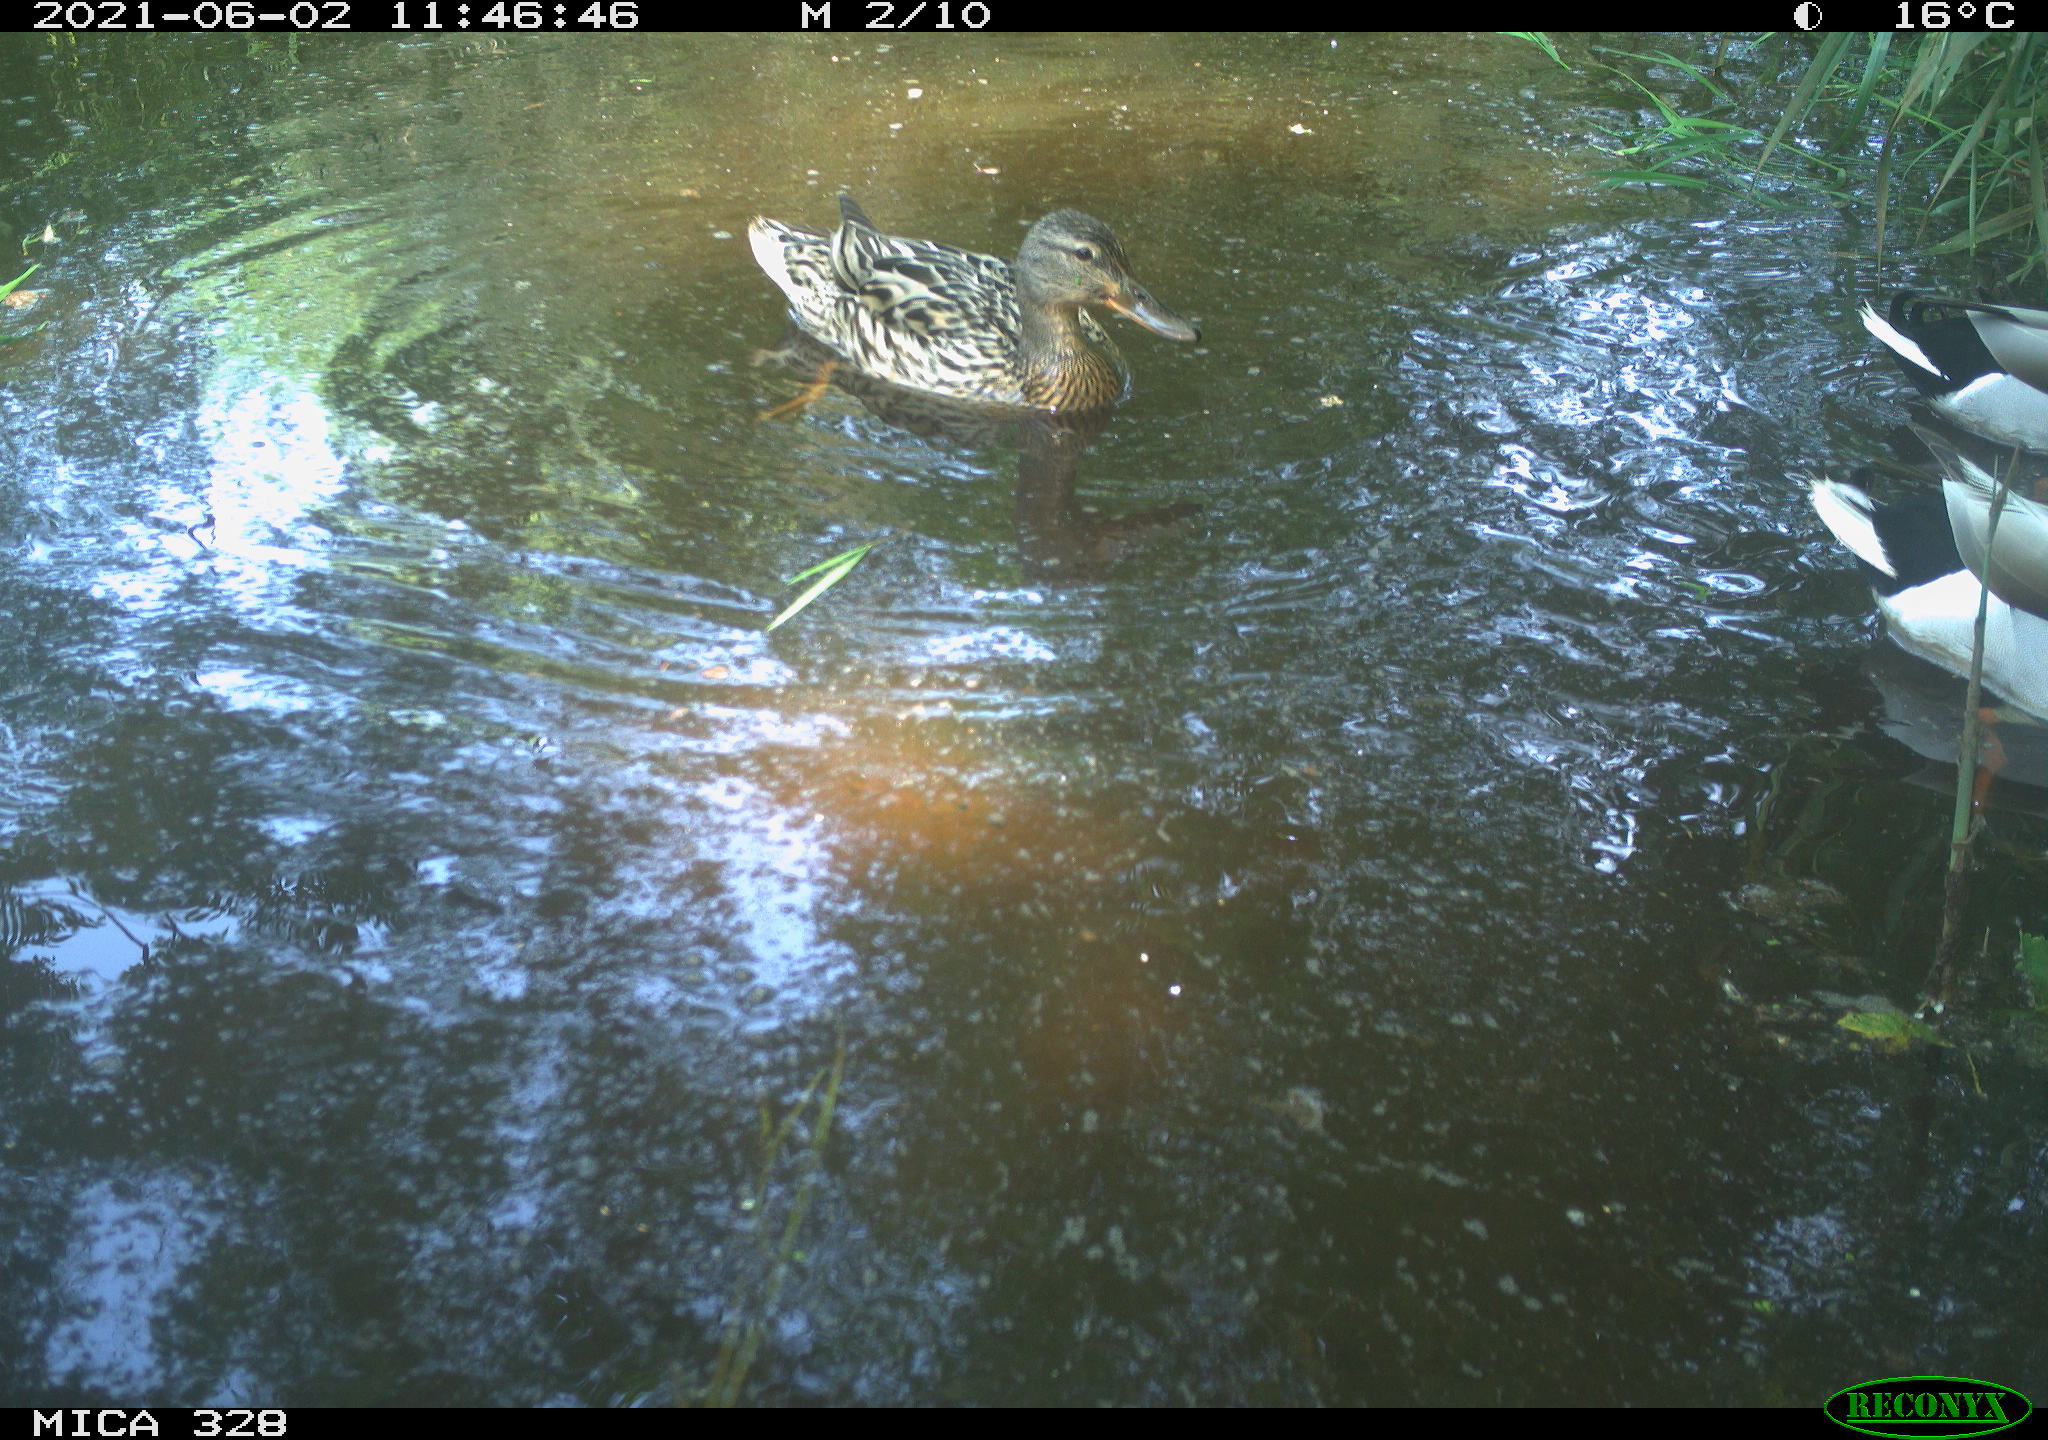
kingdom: Animalia
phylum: Chordata
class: Aves
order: Anseriformes
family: Anatidae
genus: Anas
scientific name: Anas platyrhynchos
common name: Mallard
